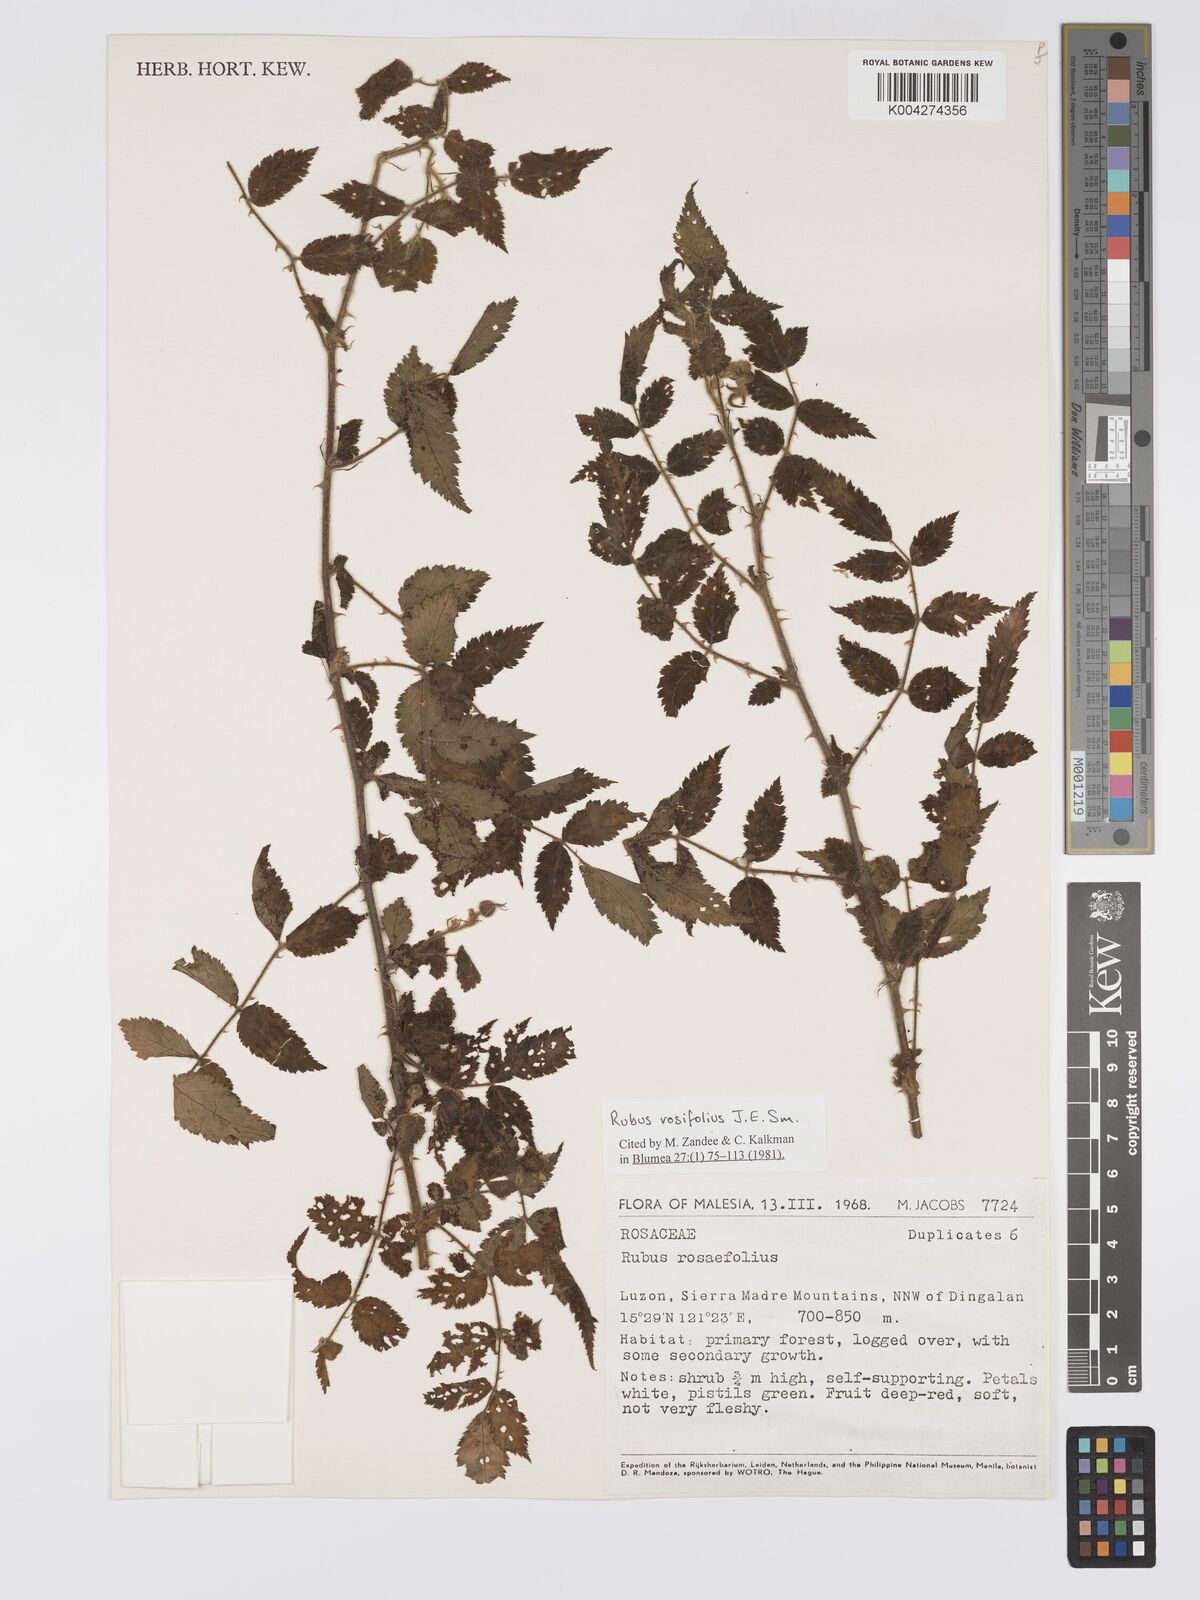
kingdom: Plantae
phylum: Tracheophyta
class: Magnoliopsida
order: Rosales
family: Rosaceae
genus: Rubus
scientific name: Rubus
